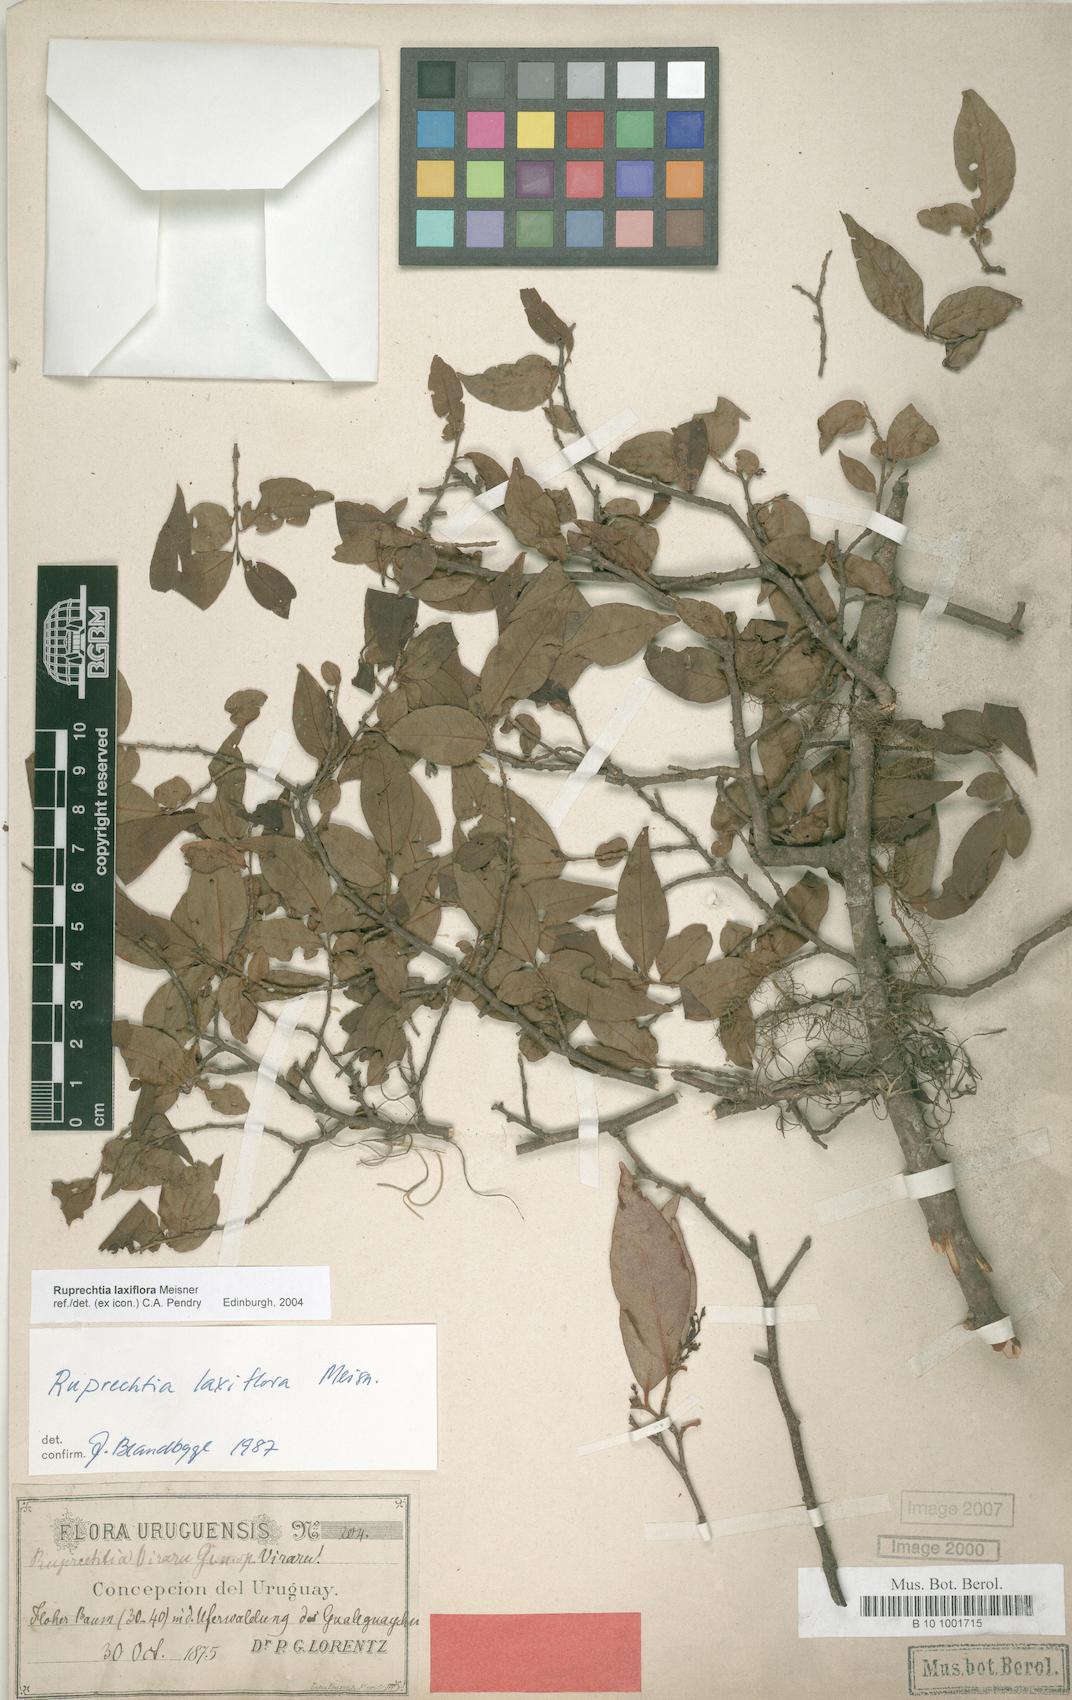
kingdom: Plantae
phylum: Tracheophyta
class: Magnoliopsida
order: Caryophyllales
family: Polygonaceae
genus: Ruprechtia
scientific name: Ruprechtia laxiflora
